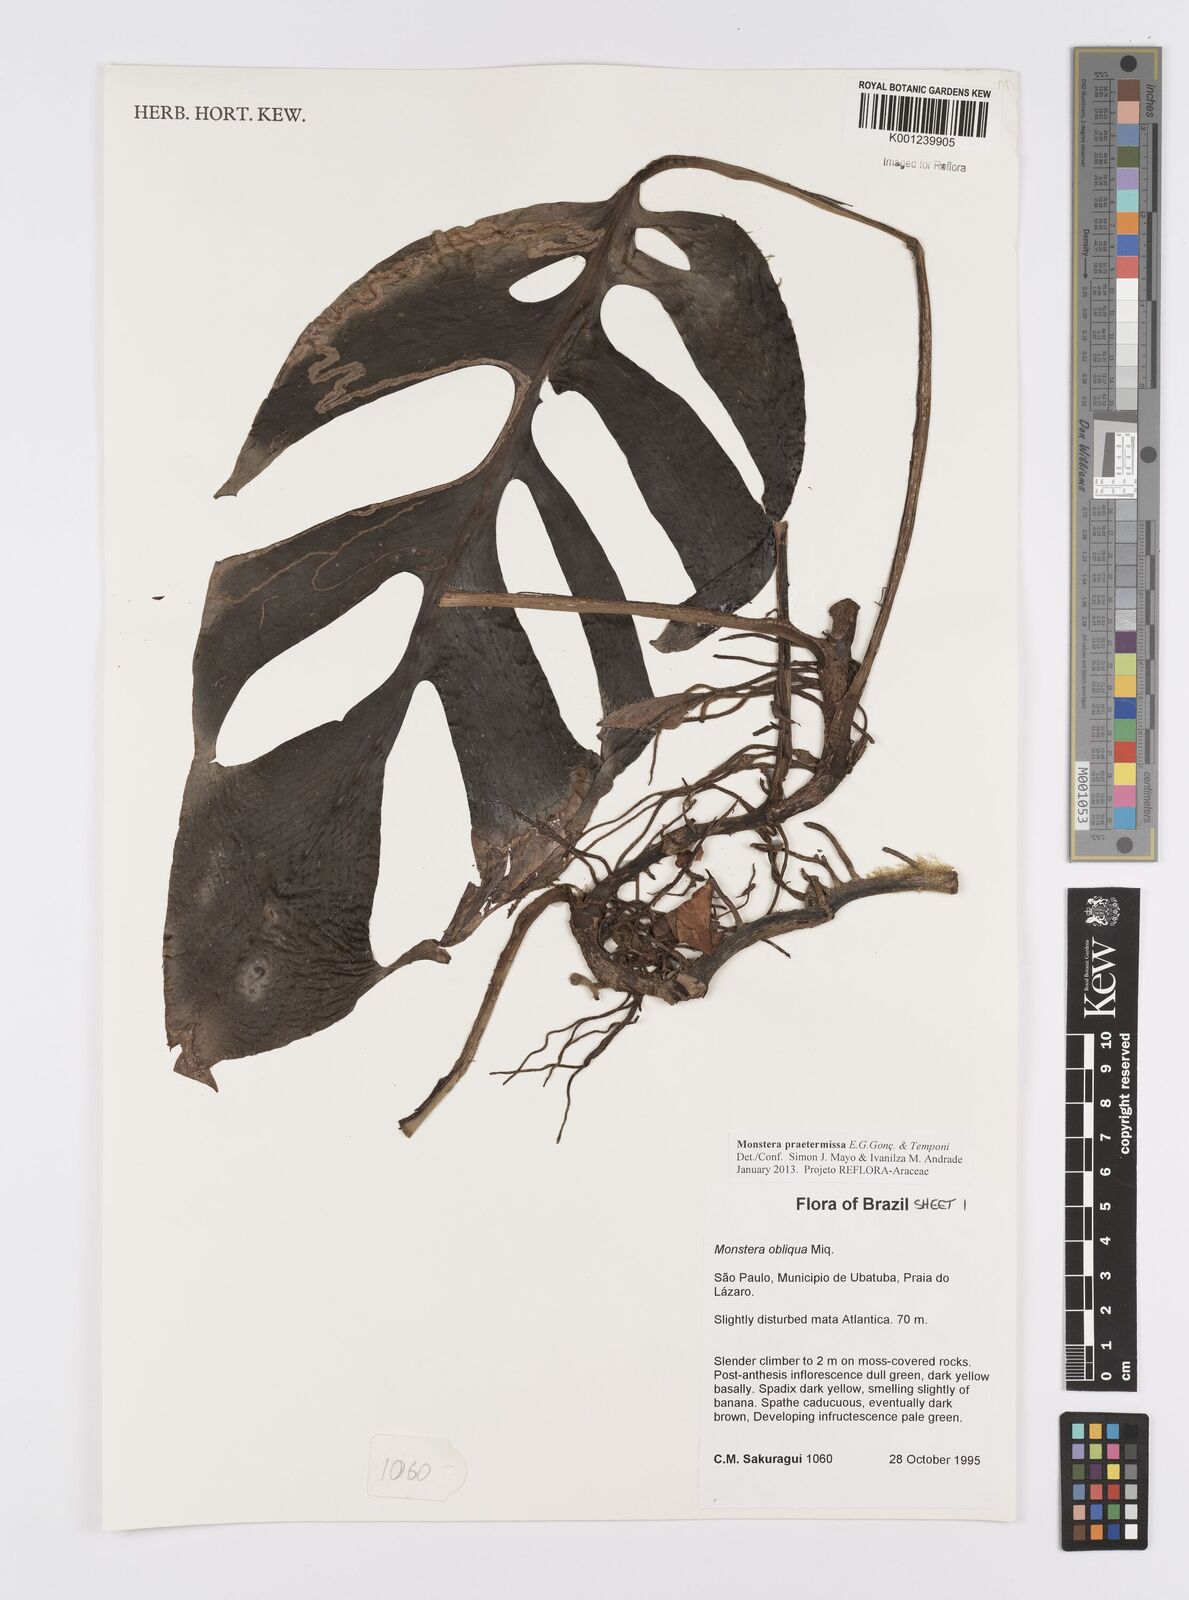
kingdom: Plantae
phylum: Tracheophyta
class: Liliopsida
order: Alismatales
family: Araceae
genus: Monstera
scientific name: Monstera praetermissa
